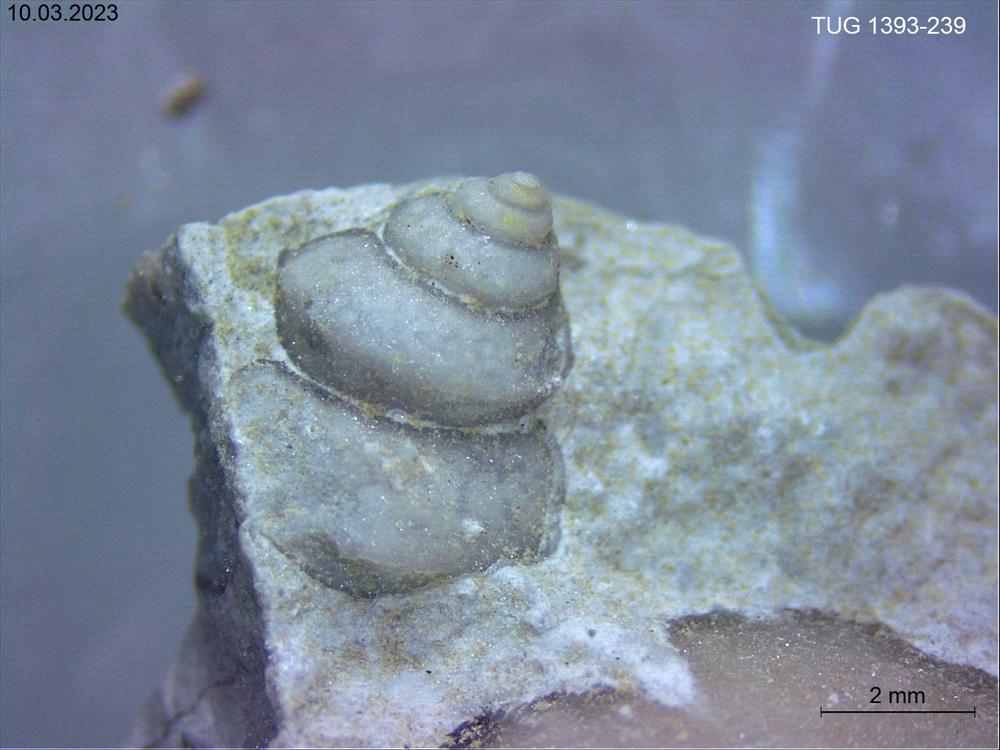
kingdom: Animalia
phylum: Mollusca
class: Gastropoda
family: Lophospiridae
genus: Lophospira
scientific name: Lophospira
